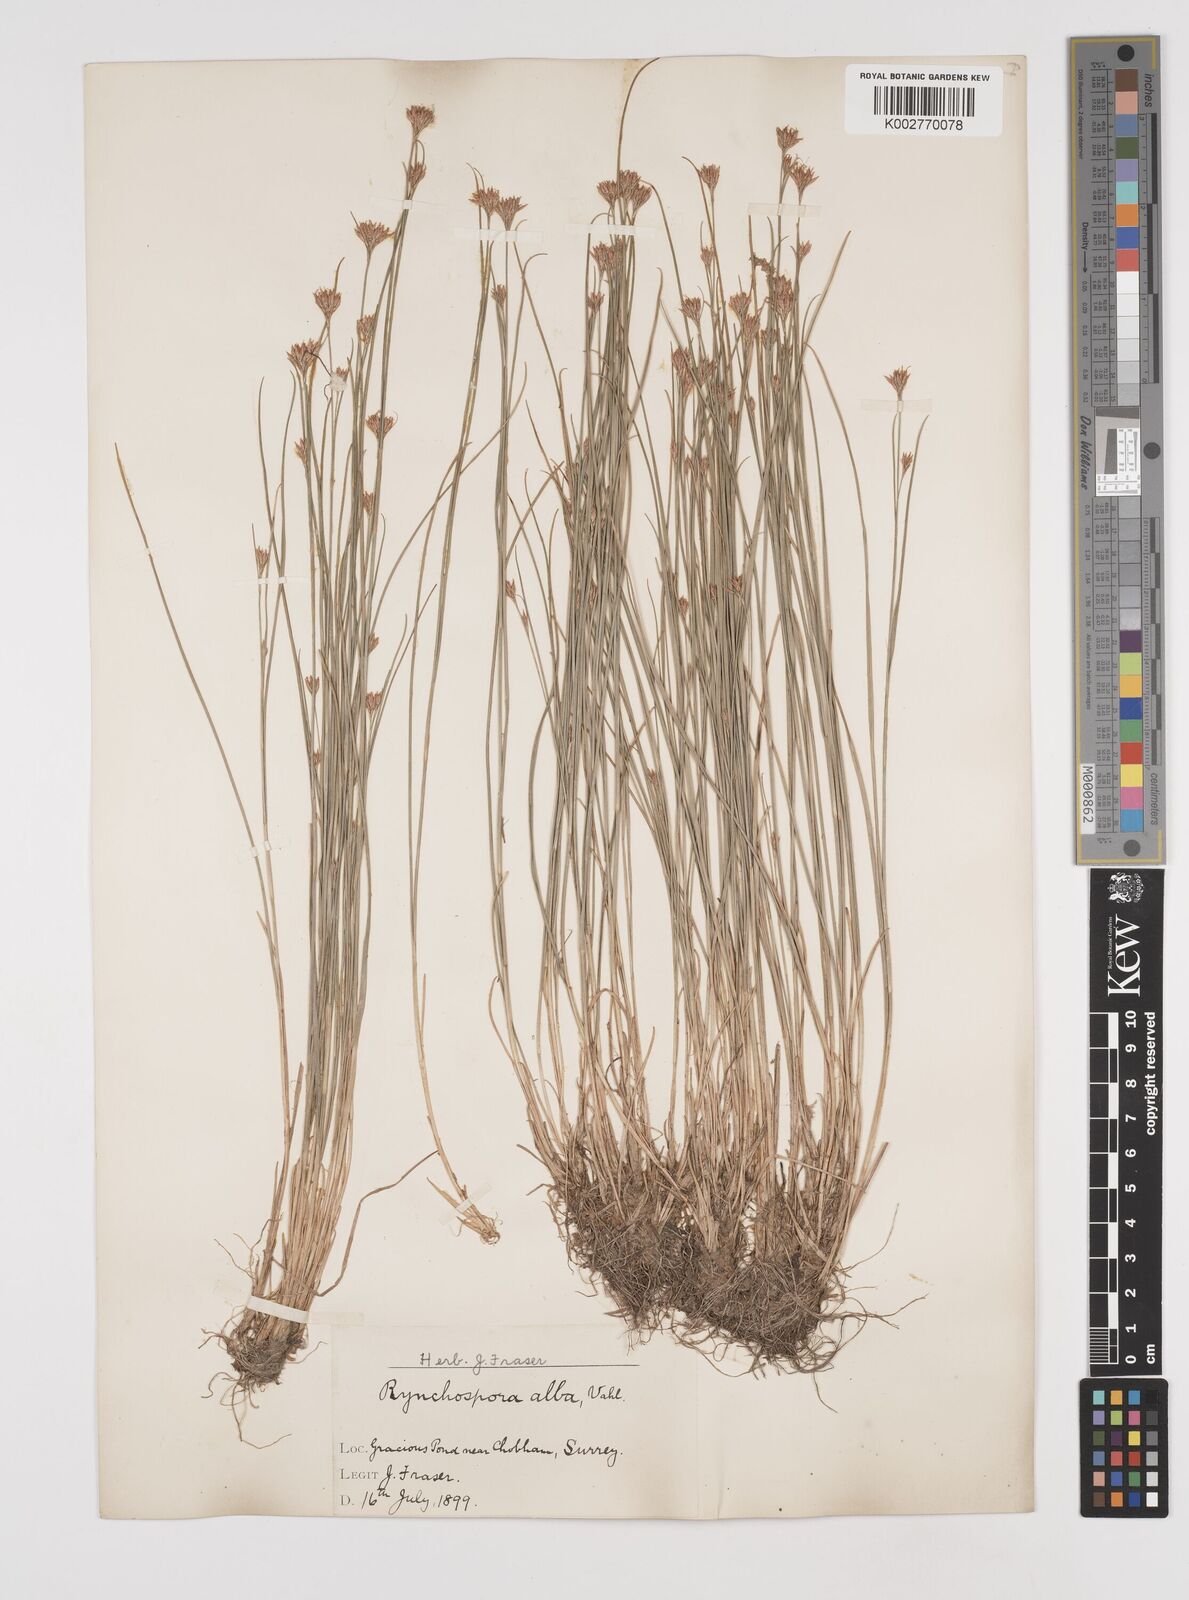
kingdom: Plantae
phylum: Tracheophyta
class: Liliopsida
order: Poales
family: Cyperaceae
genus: Rhynchospora
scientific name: Rhynchospora alba
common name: White beak-sedge
